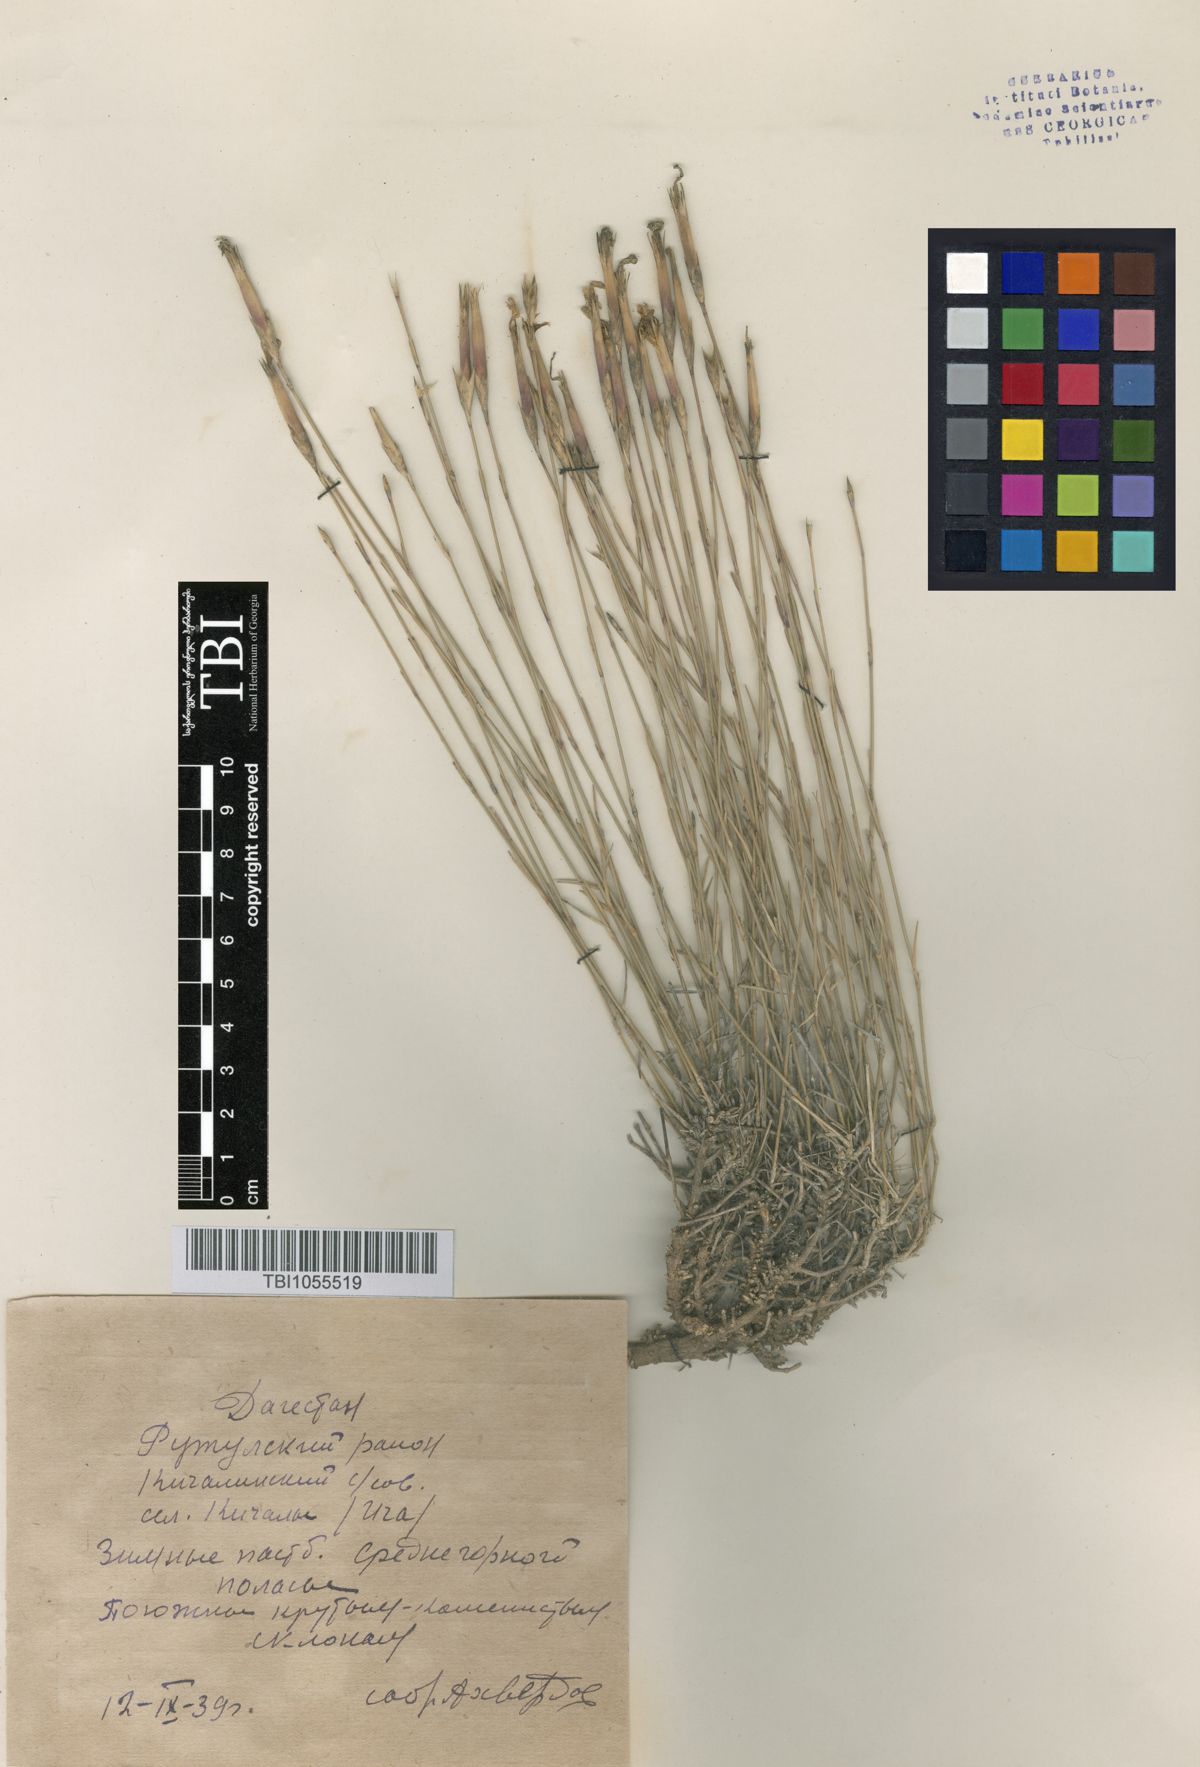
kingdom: Plantae
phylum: Tracheophyta
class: Magnoliopsida
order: Caryophyllales
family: Caryophyllaceae
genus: Dianthus
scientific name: Dianthus daghestanicus
